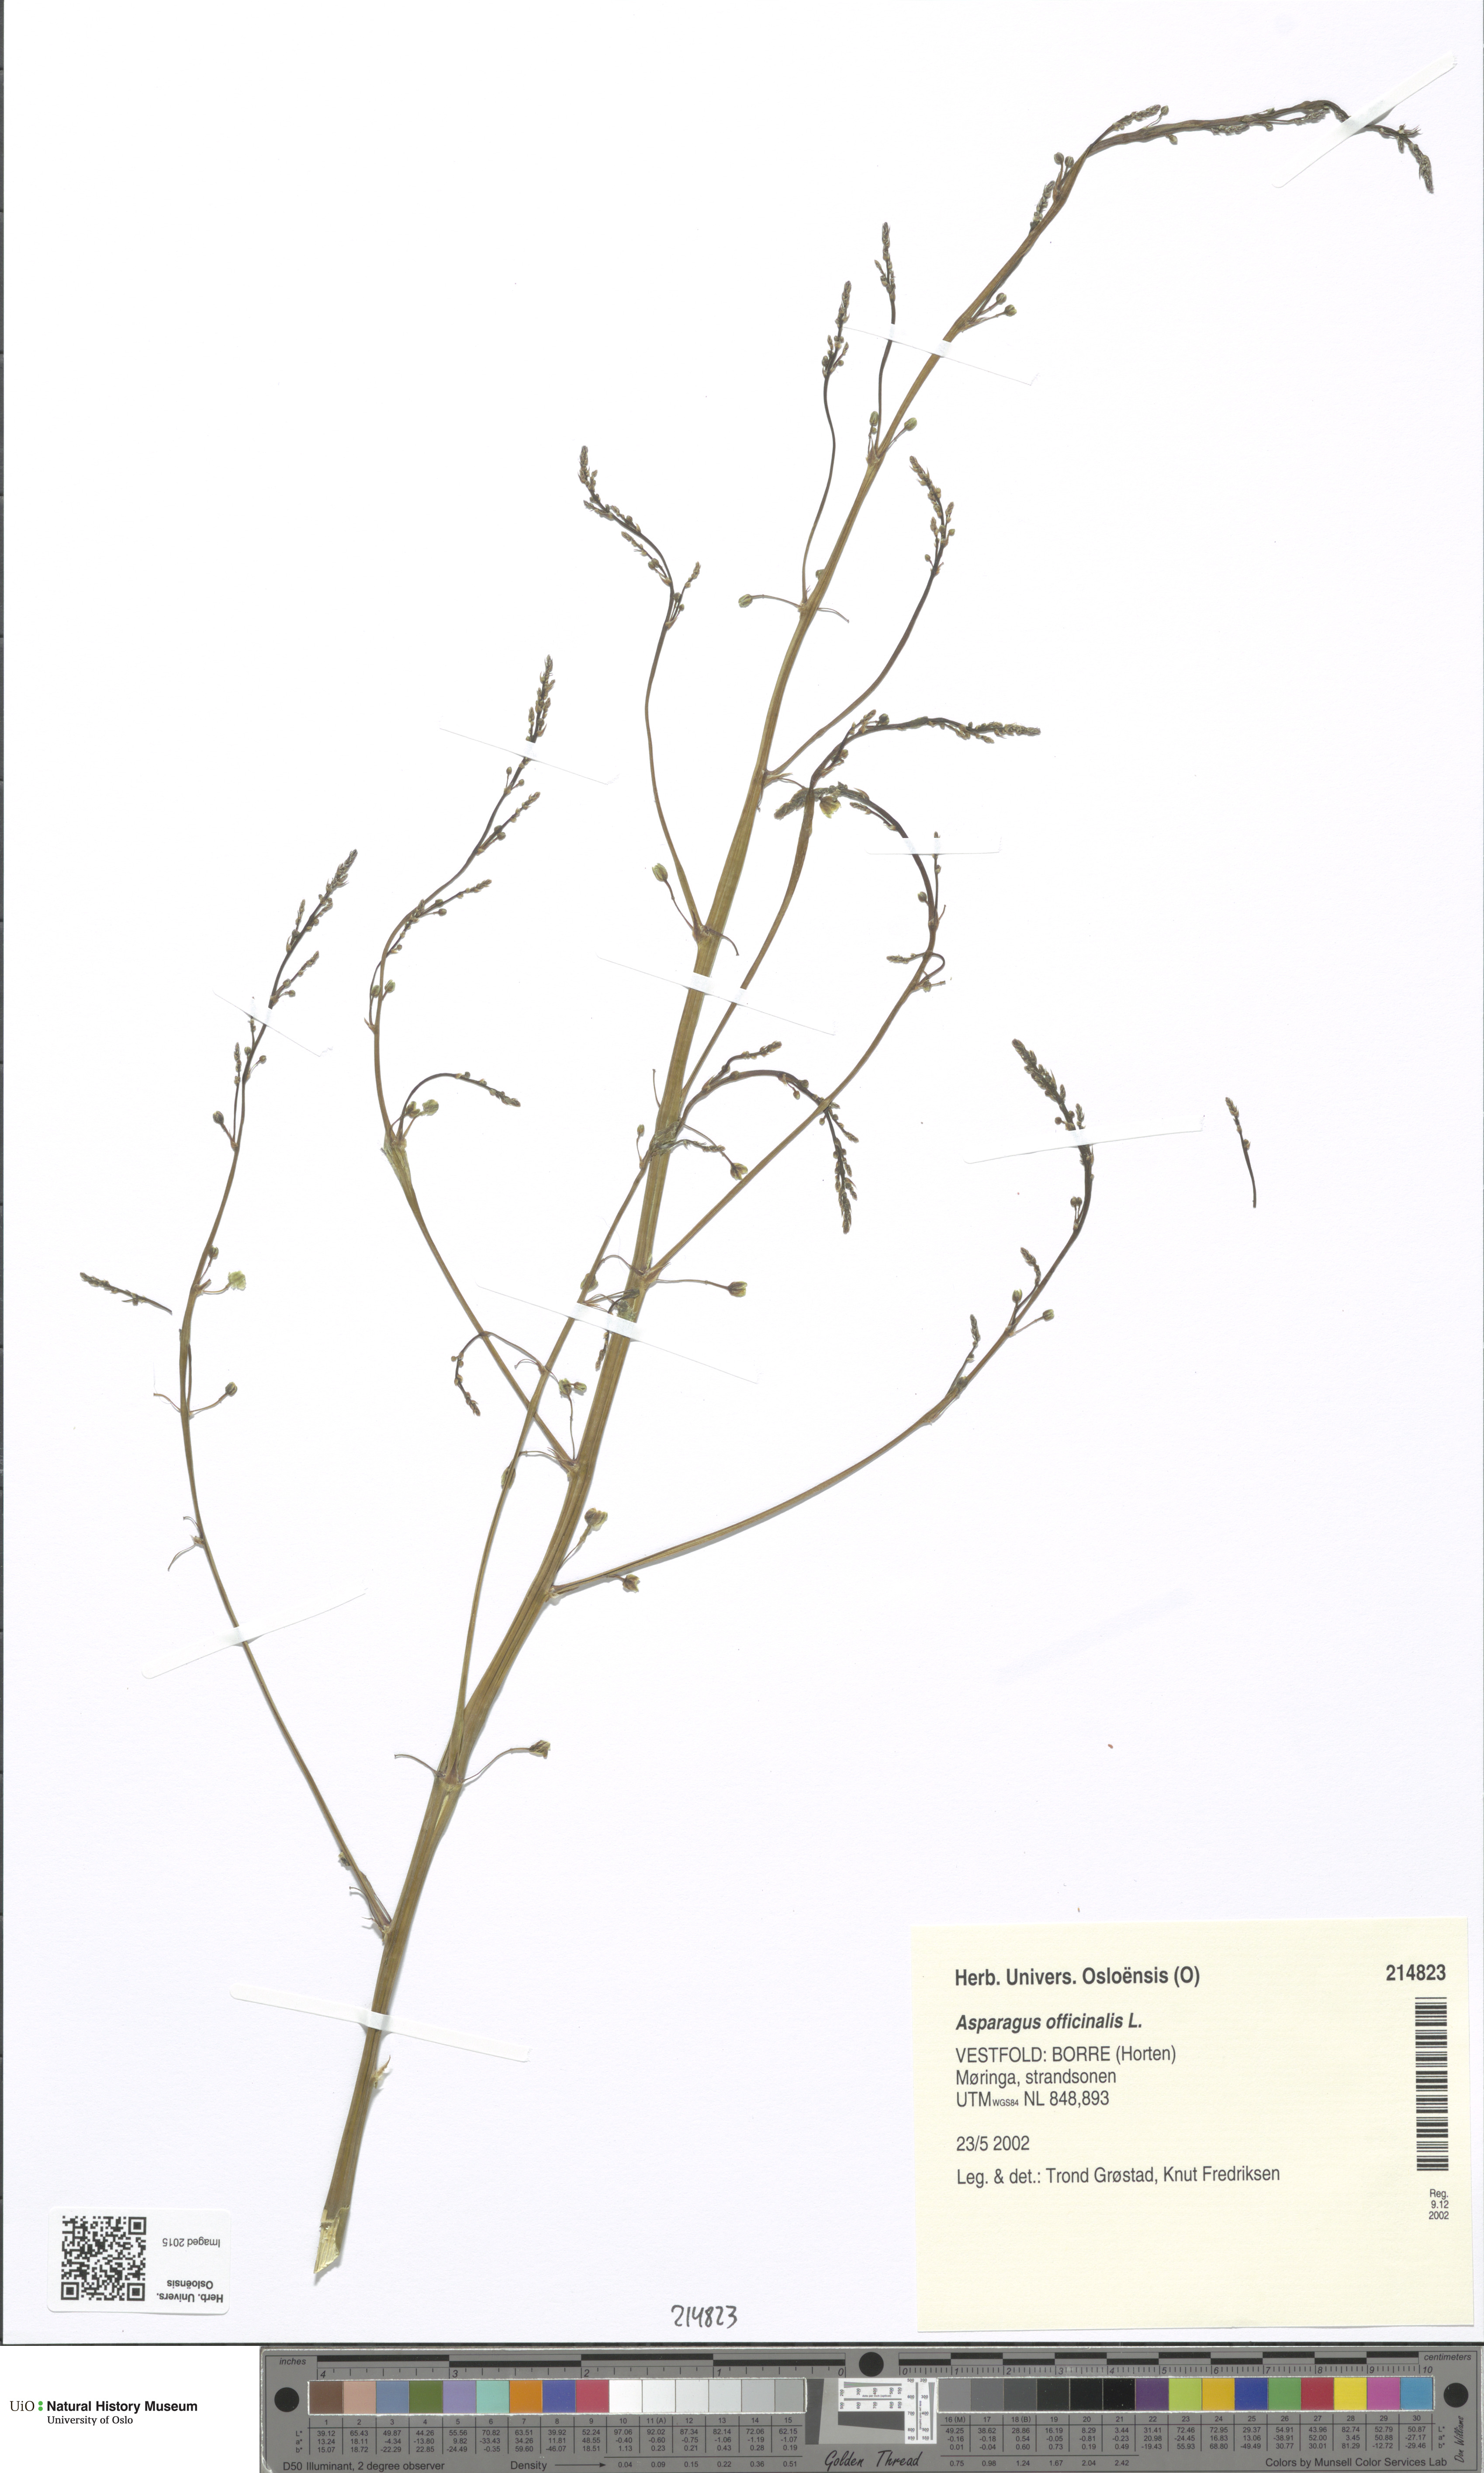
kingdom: Plantae
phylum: Tracheophyta
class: Liliopsida
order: Asparagales
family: Asparagaceae
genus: Asparagus
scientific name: Asparagus officinalis
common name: Garden asparagus
